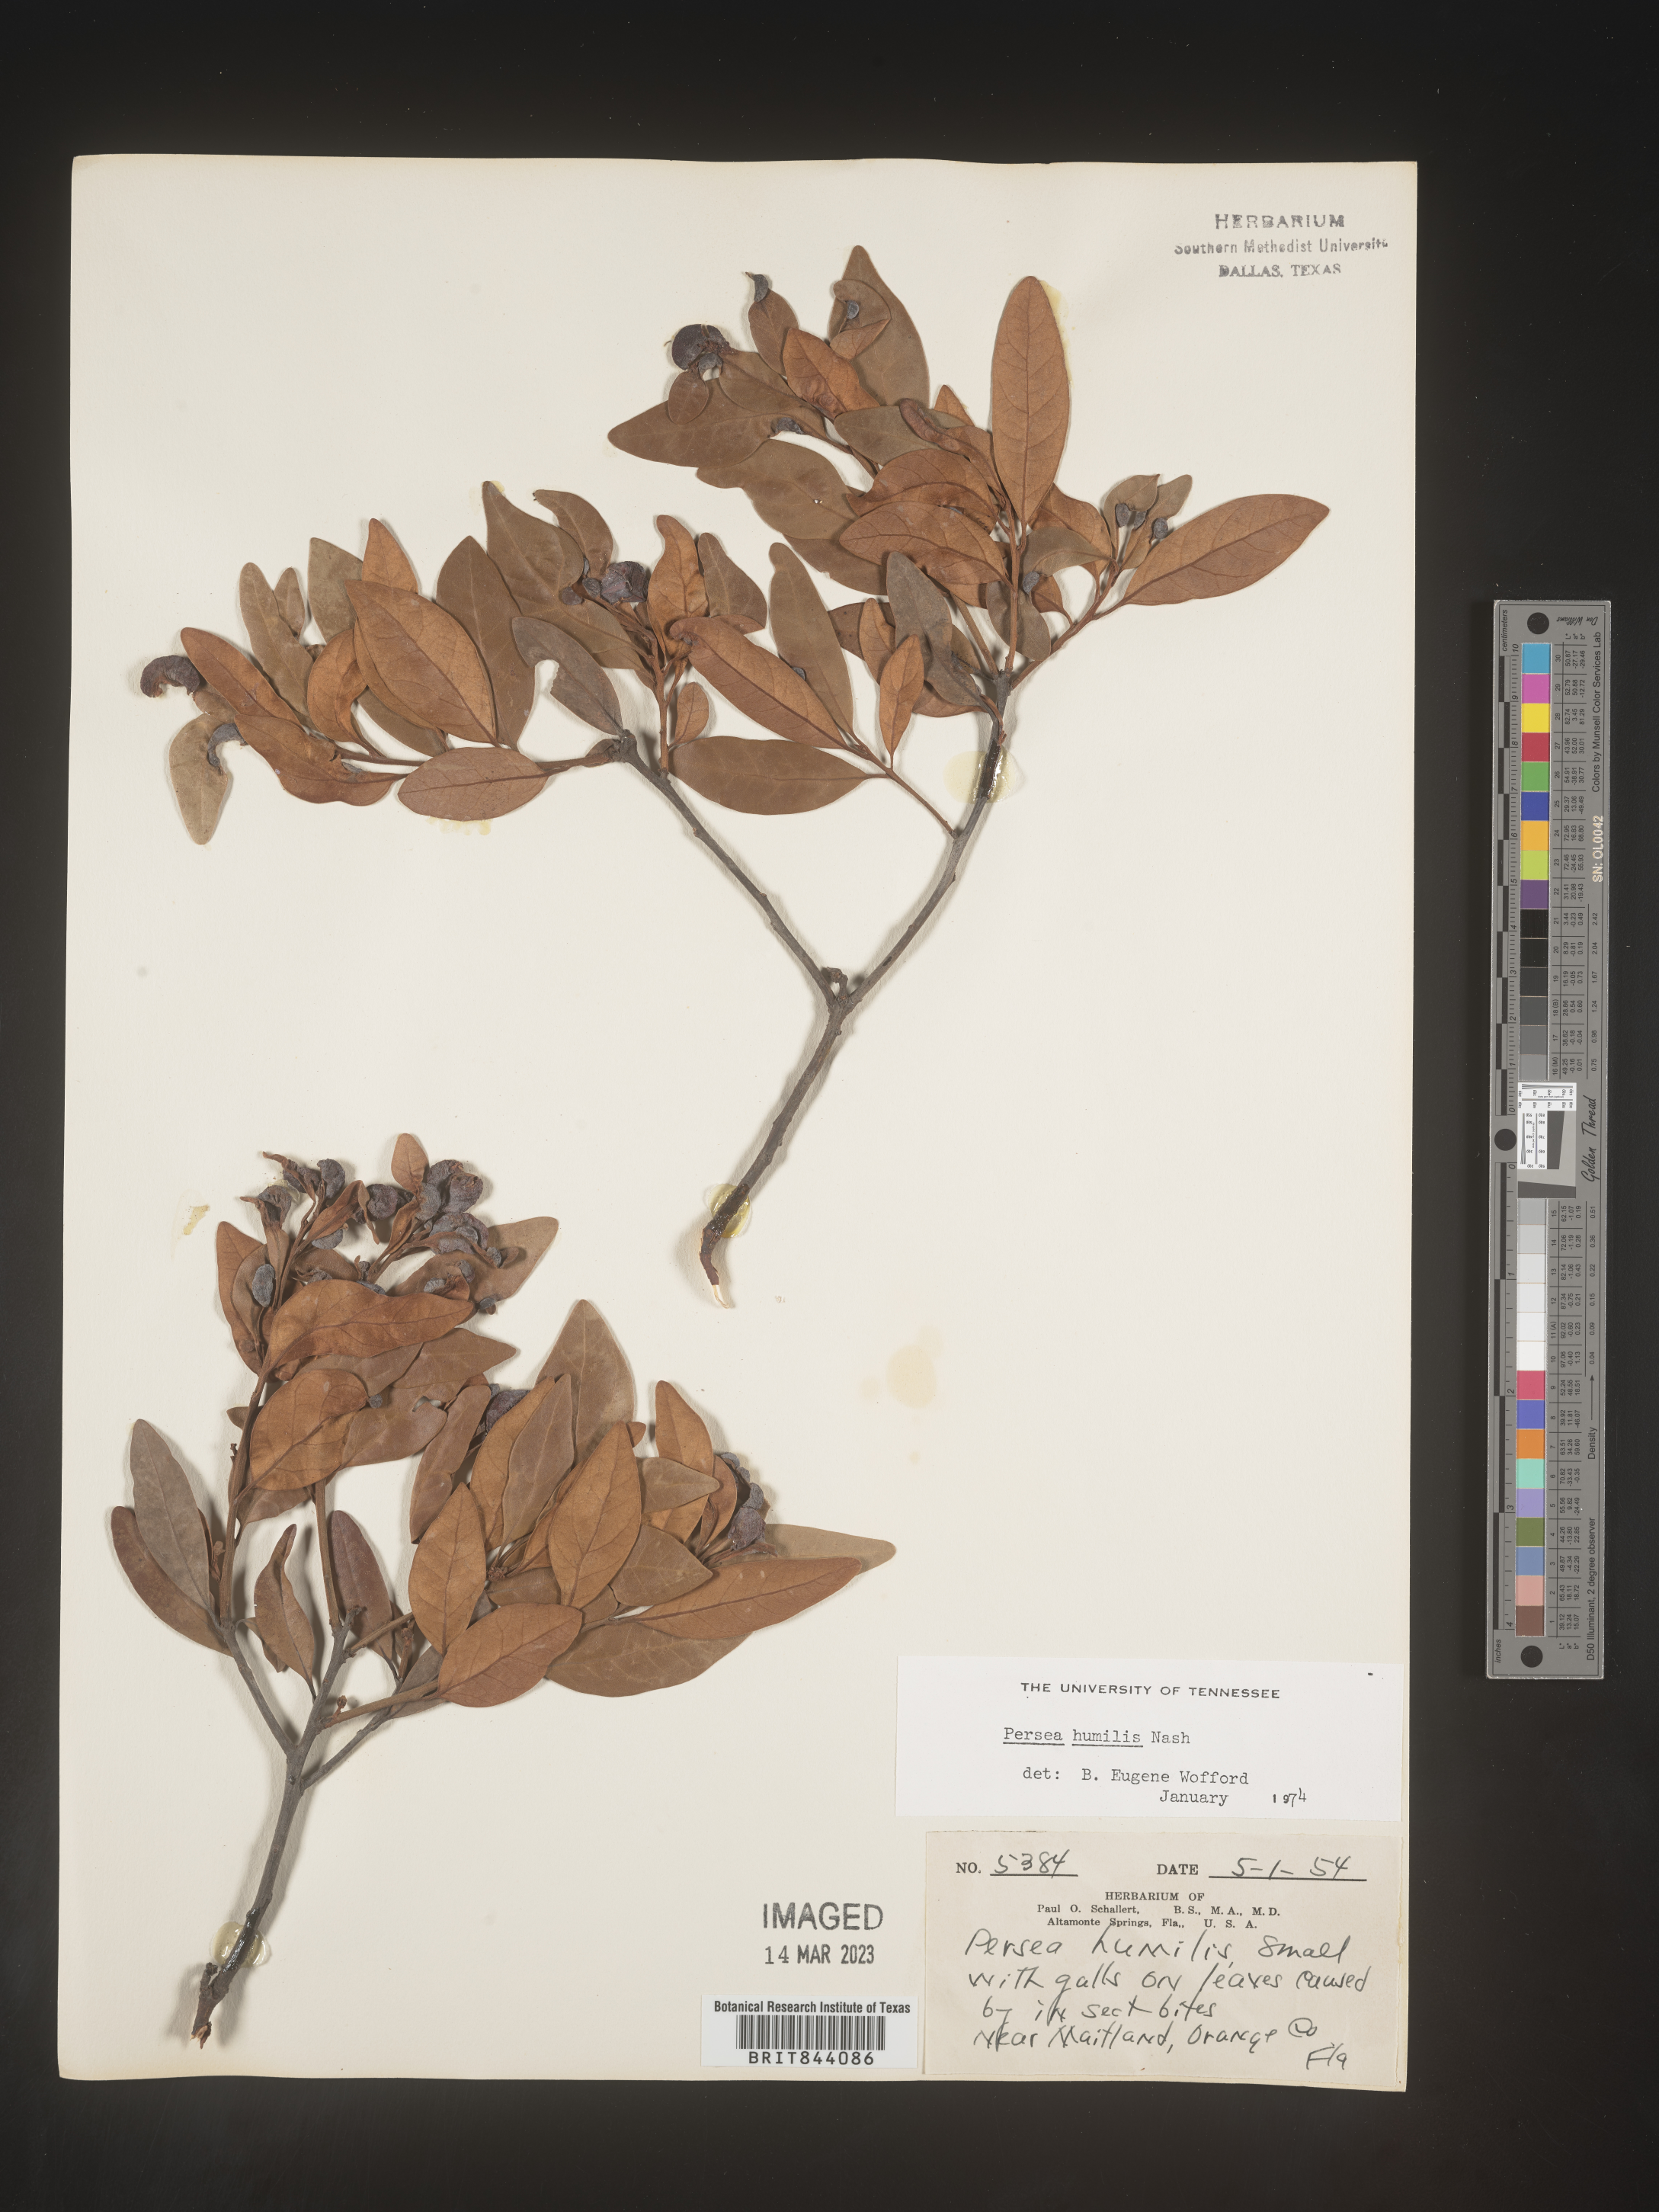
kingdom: Plantae
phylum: Tracheophyta
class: Magnoliopsida
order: Laurales
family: Lauraceae
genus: Persea
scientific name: Persea
